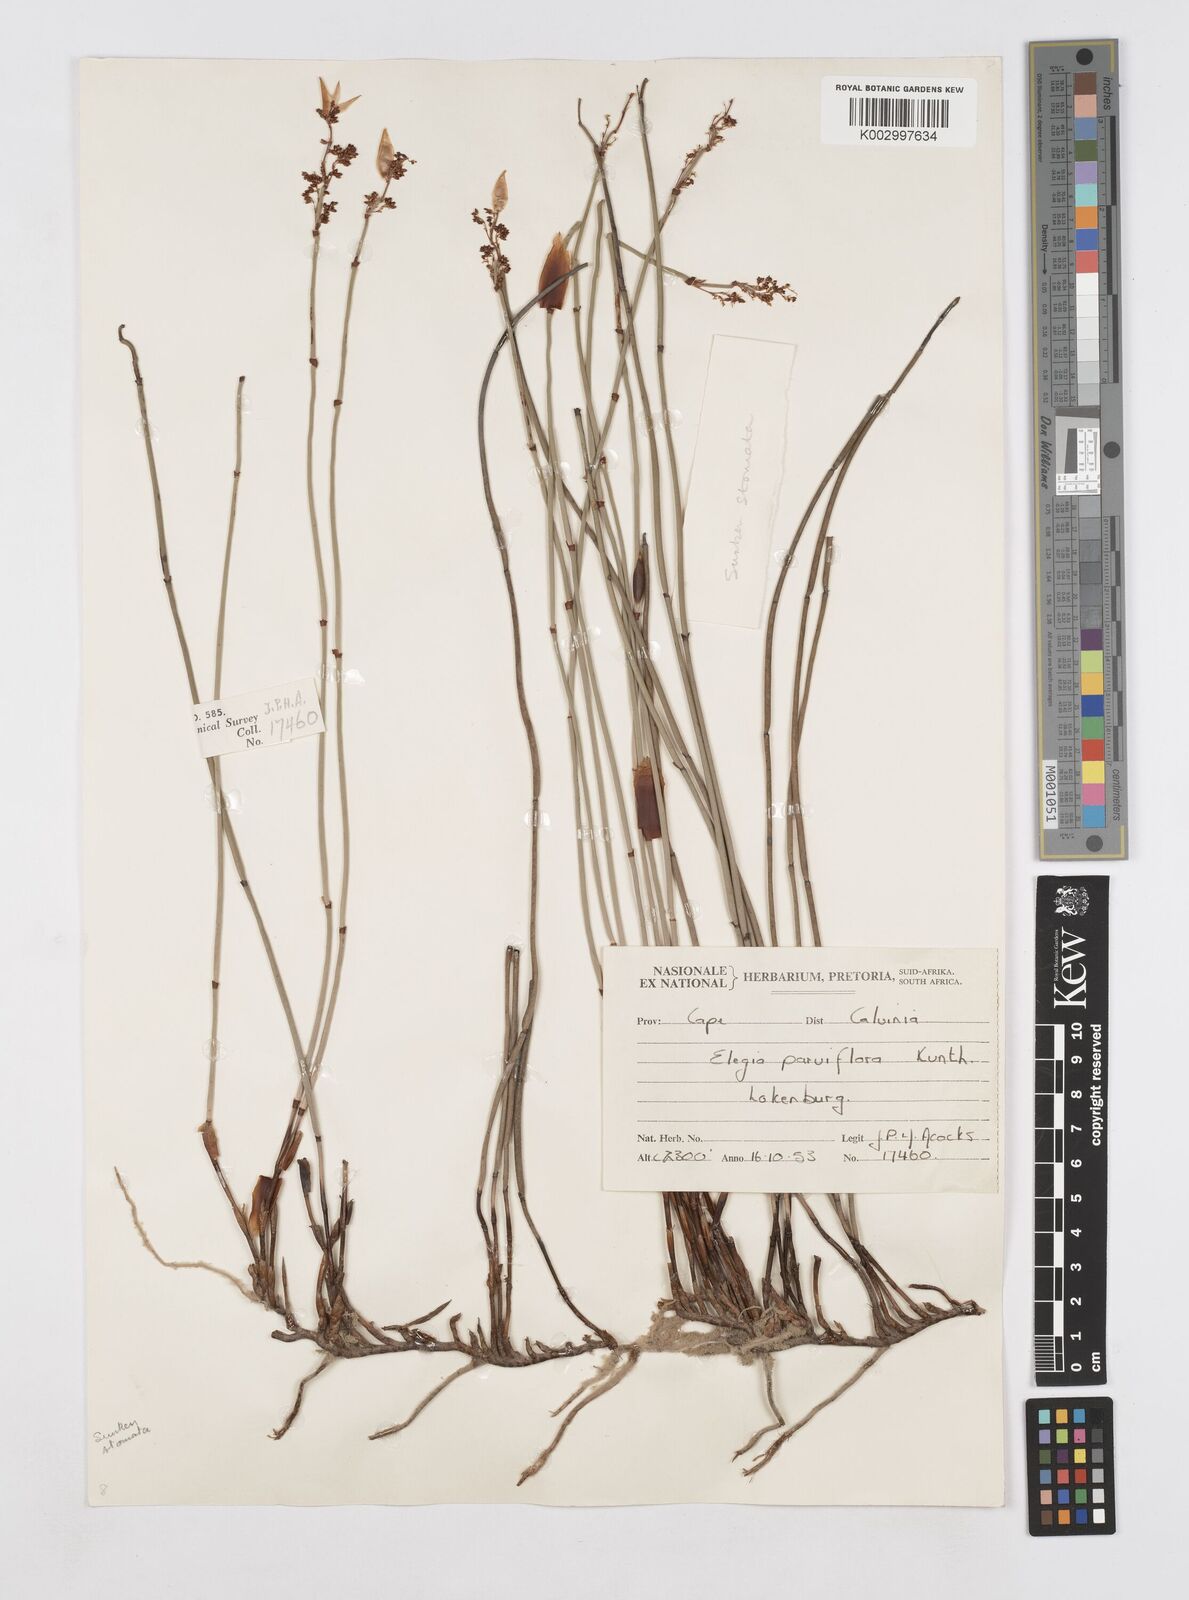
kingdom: Plantae
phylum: Tracheophyta
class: Liliopsida
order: Poales
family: Restionaceae
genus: Elegia
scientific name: Elegia esterhuyseniae
